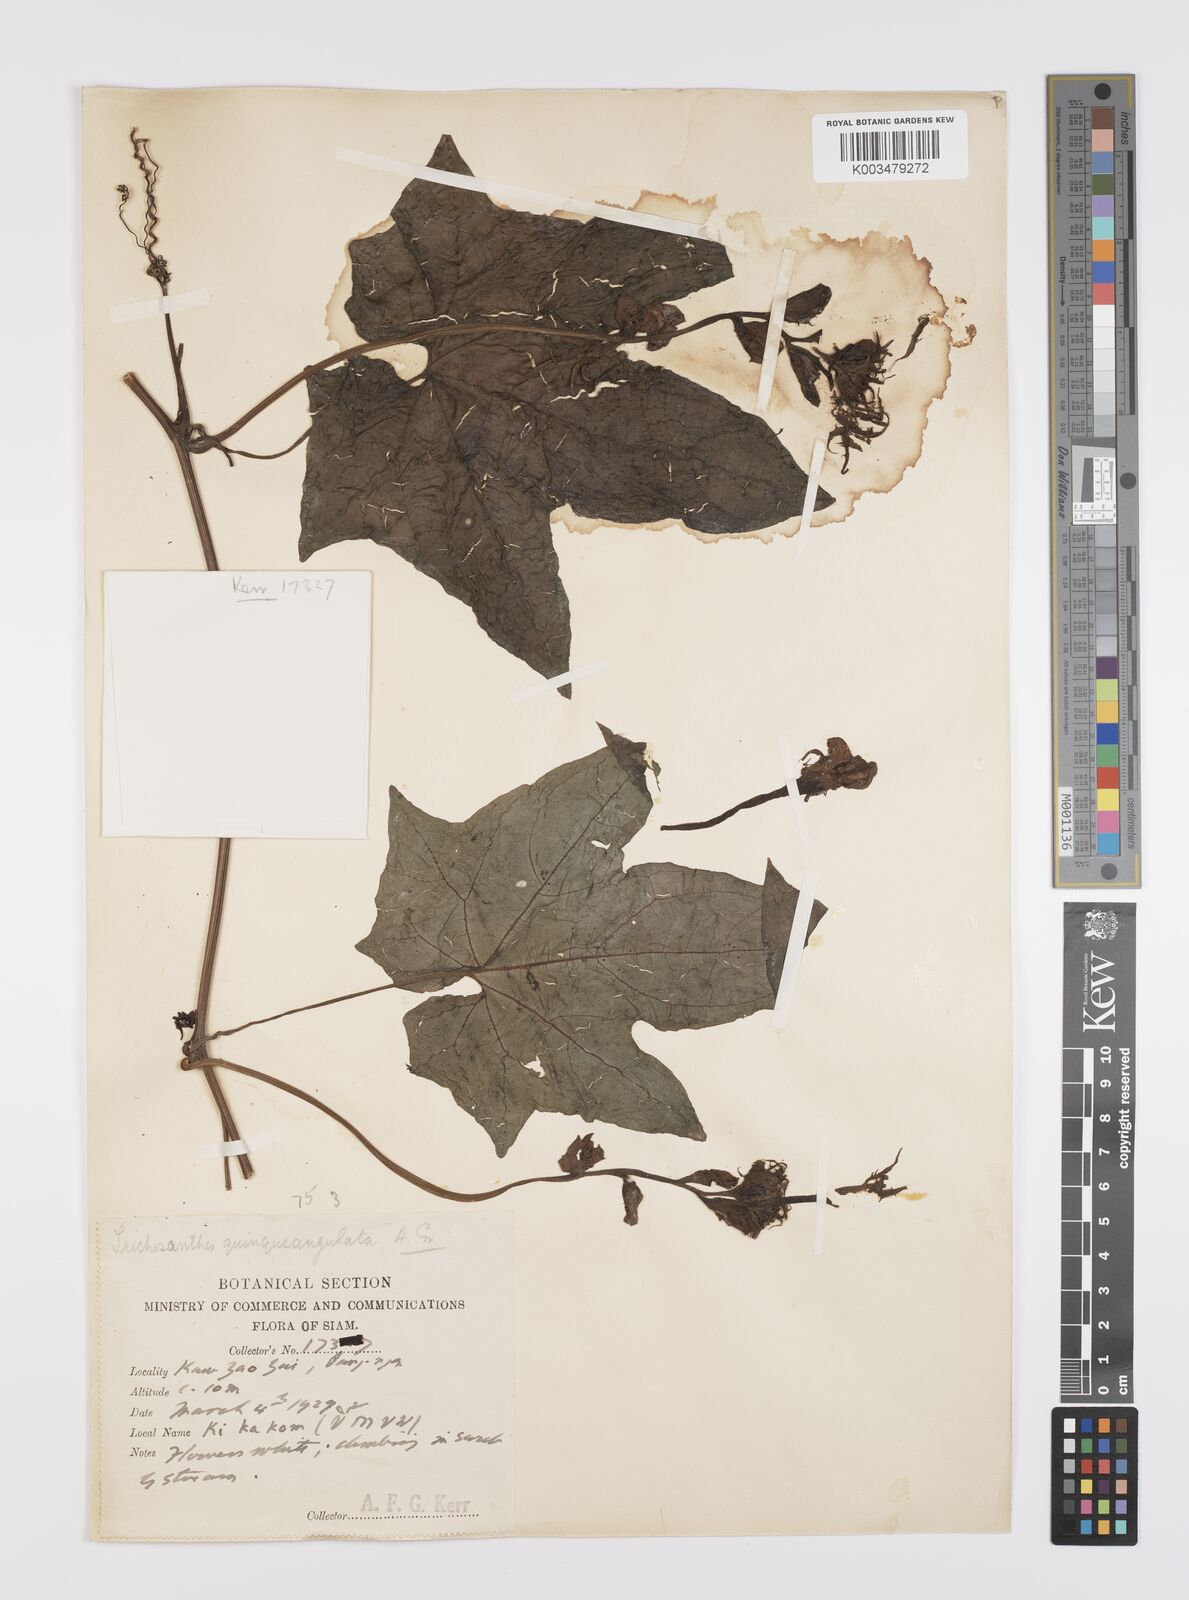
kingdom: Plantae
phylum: Tracheophyta
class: Magnoliopsida
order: Cucurbitales
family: Cucurbitaceae
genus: Trichosanthes
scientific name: Trichosanthes quinquangulata
